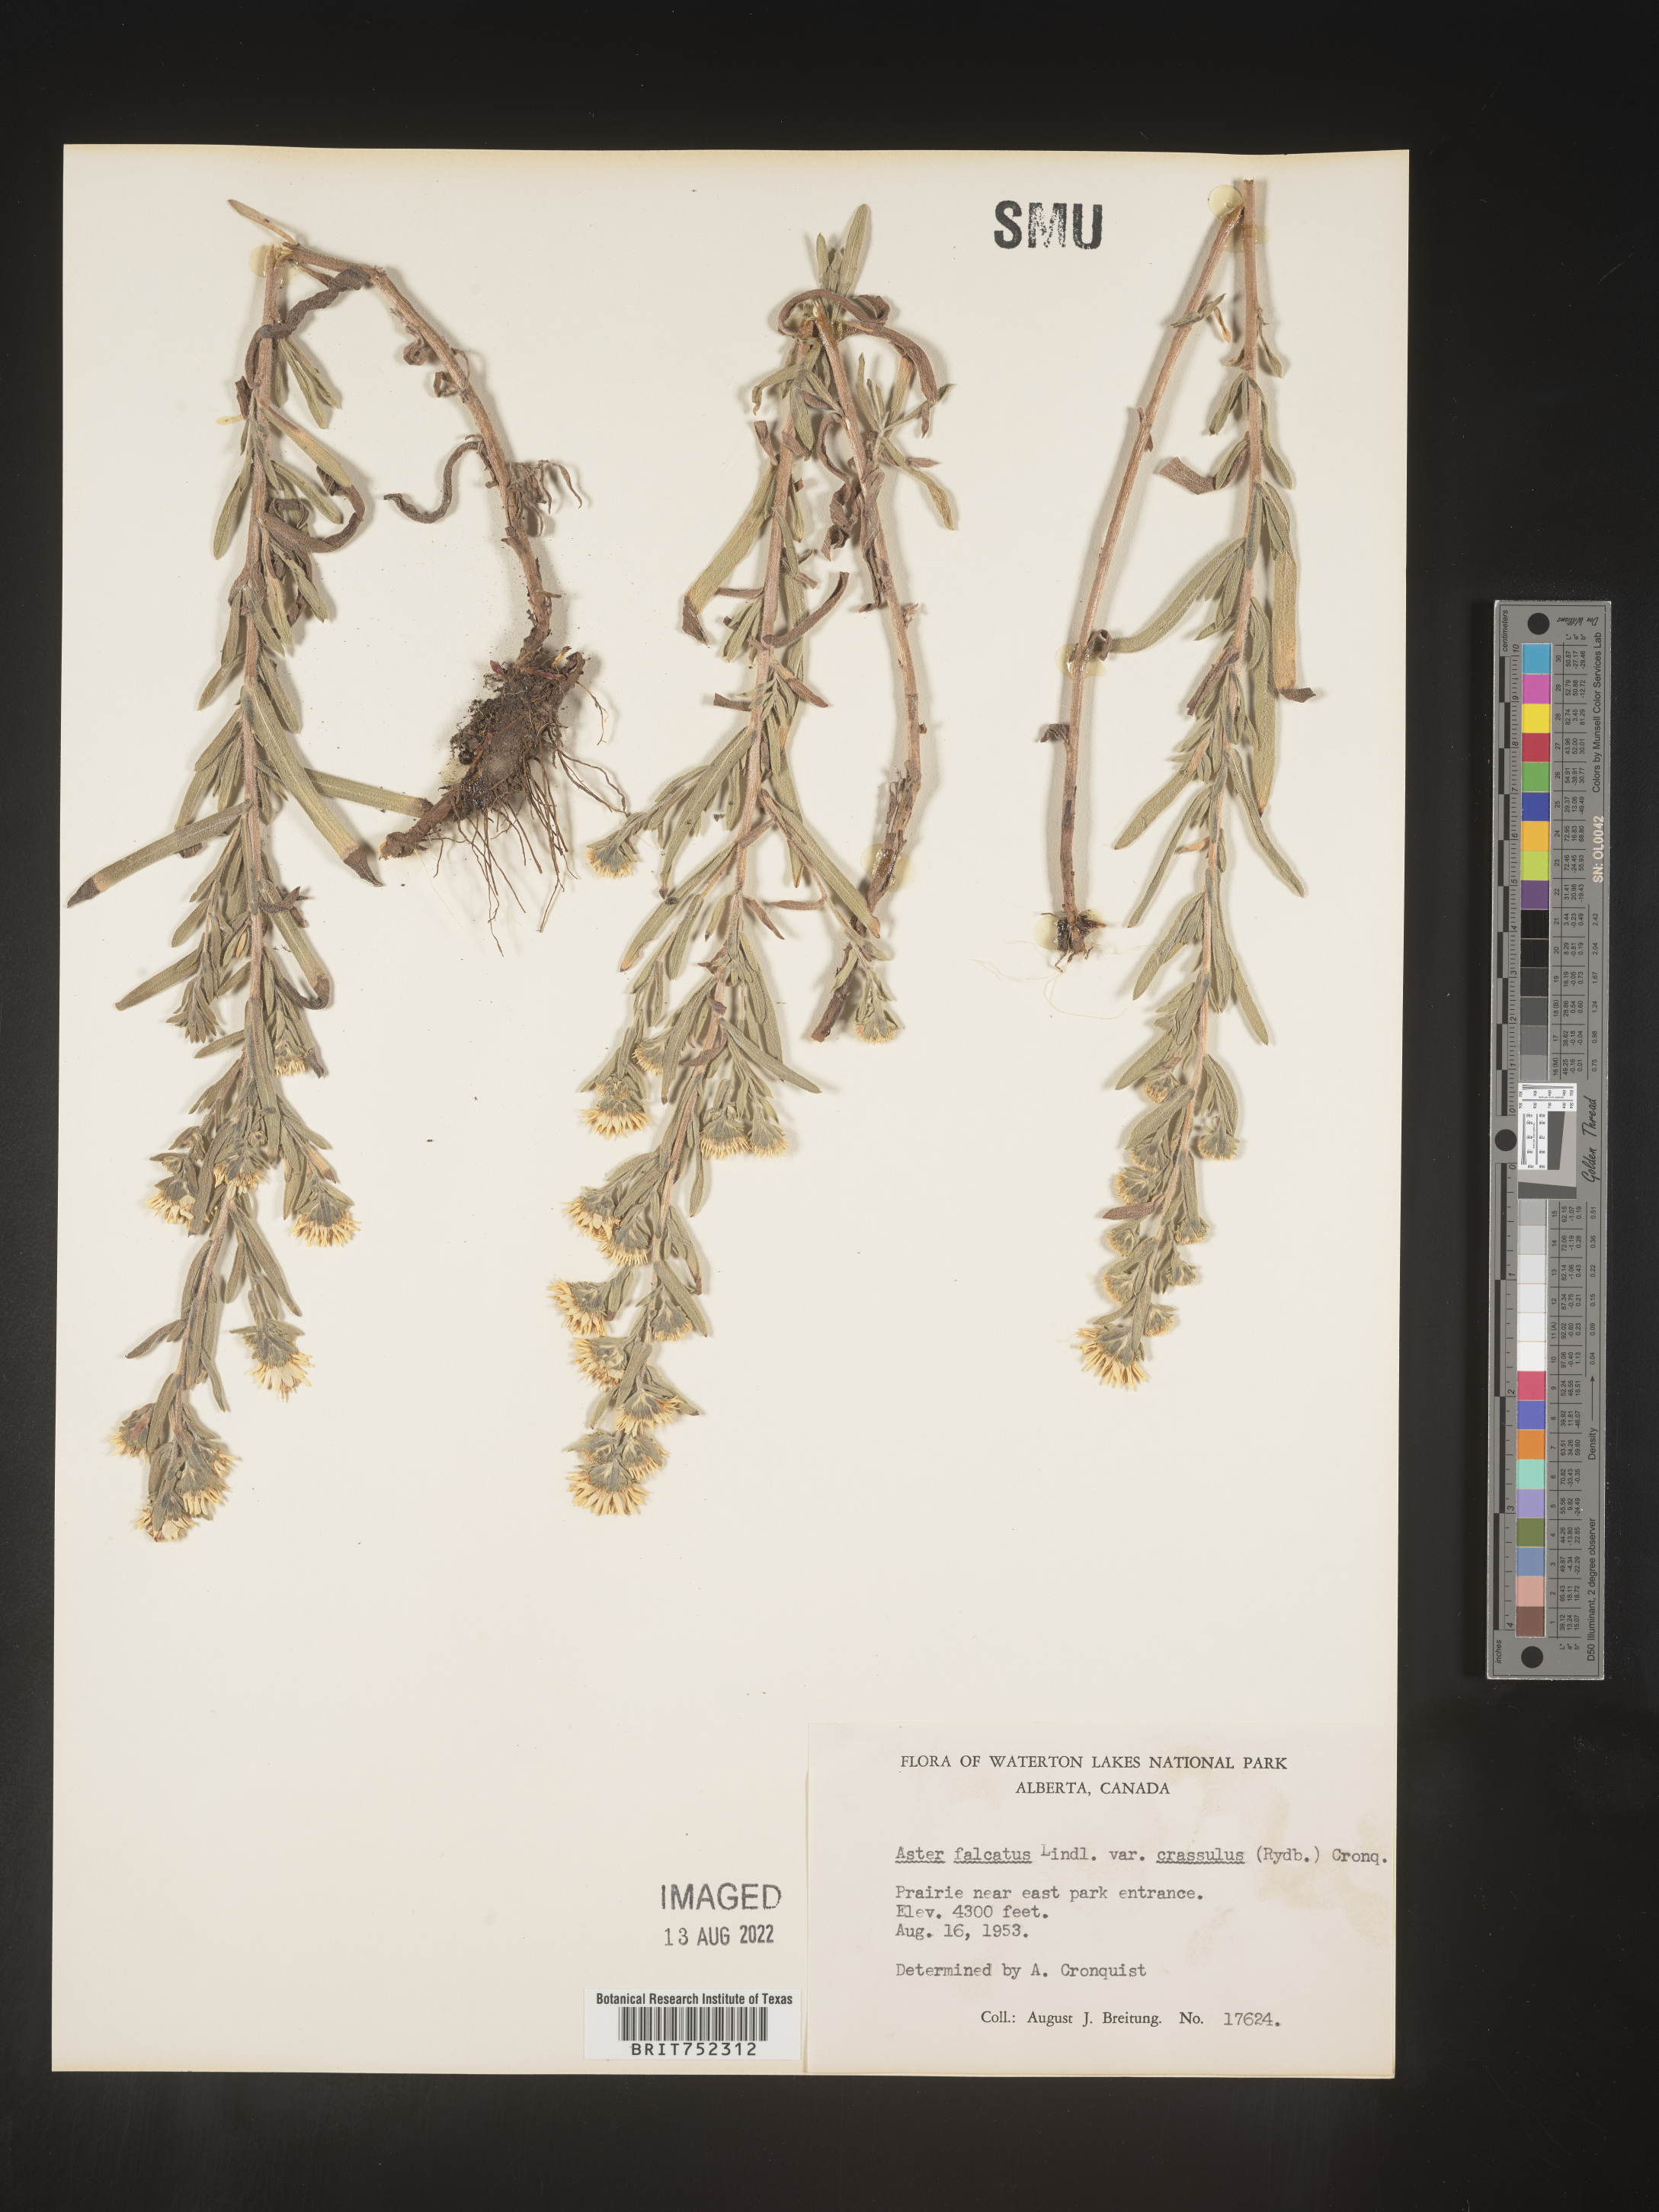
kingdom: Plantae
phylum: Tracheophyta
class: Magnoliopsida
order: Asterales
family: Asteraceae
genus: Symphyotrichum
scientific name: Symphyotrichum falcatum
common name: Creeping white prairie aster
